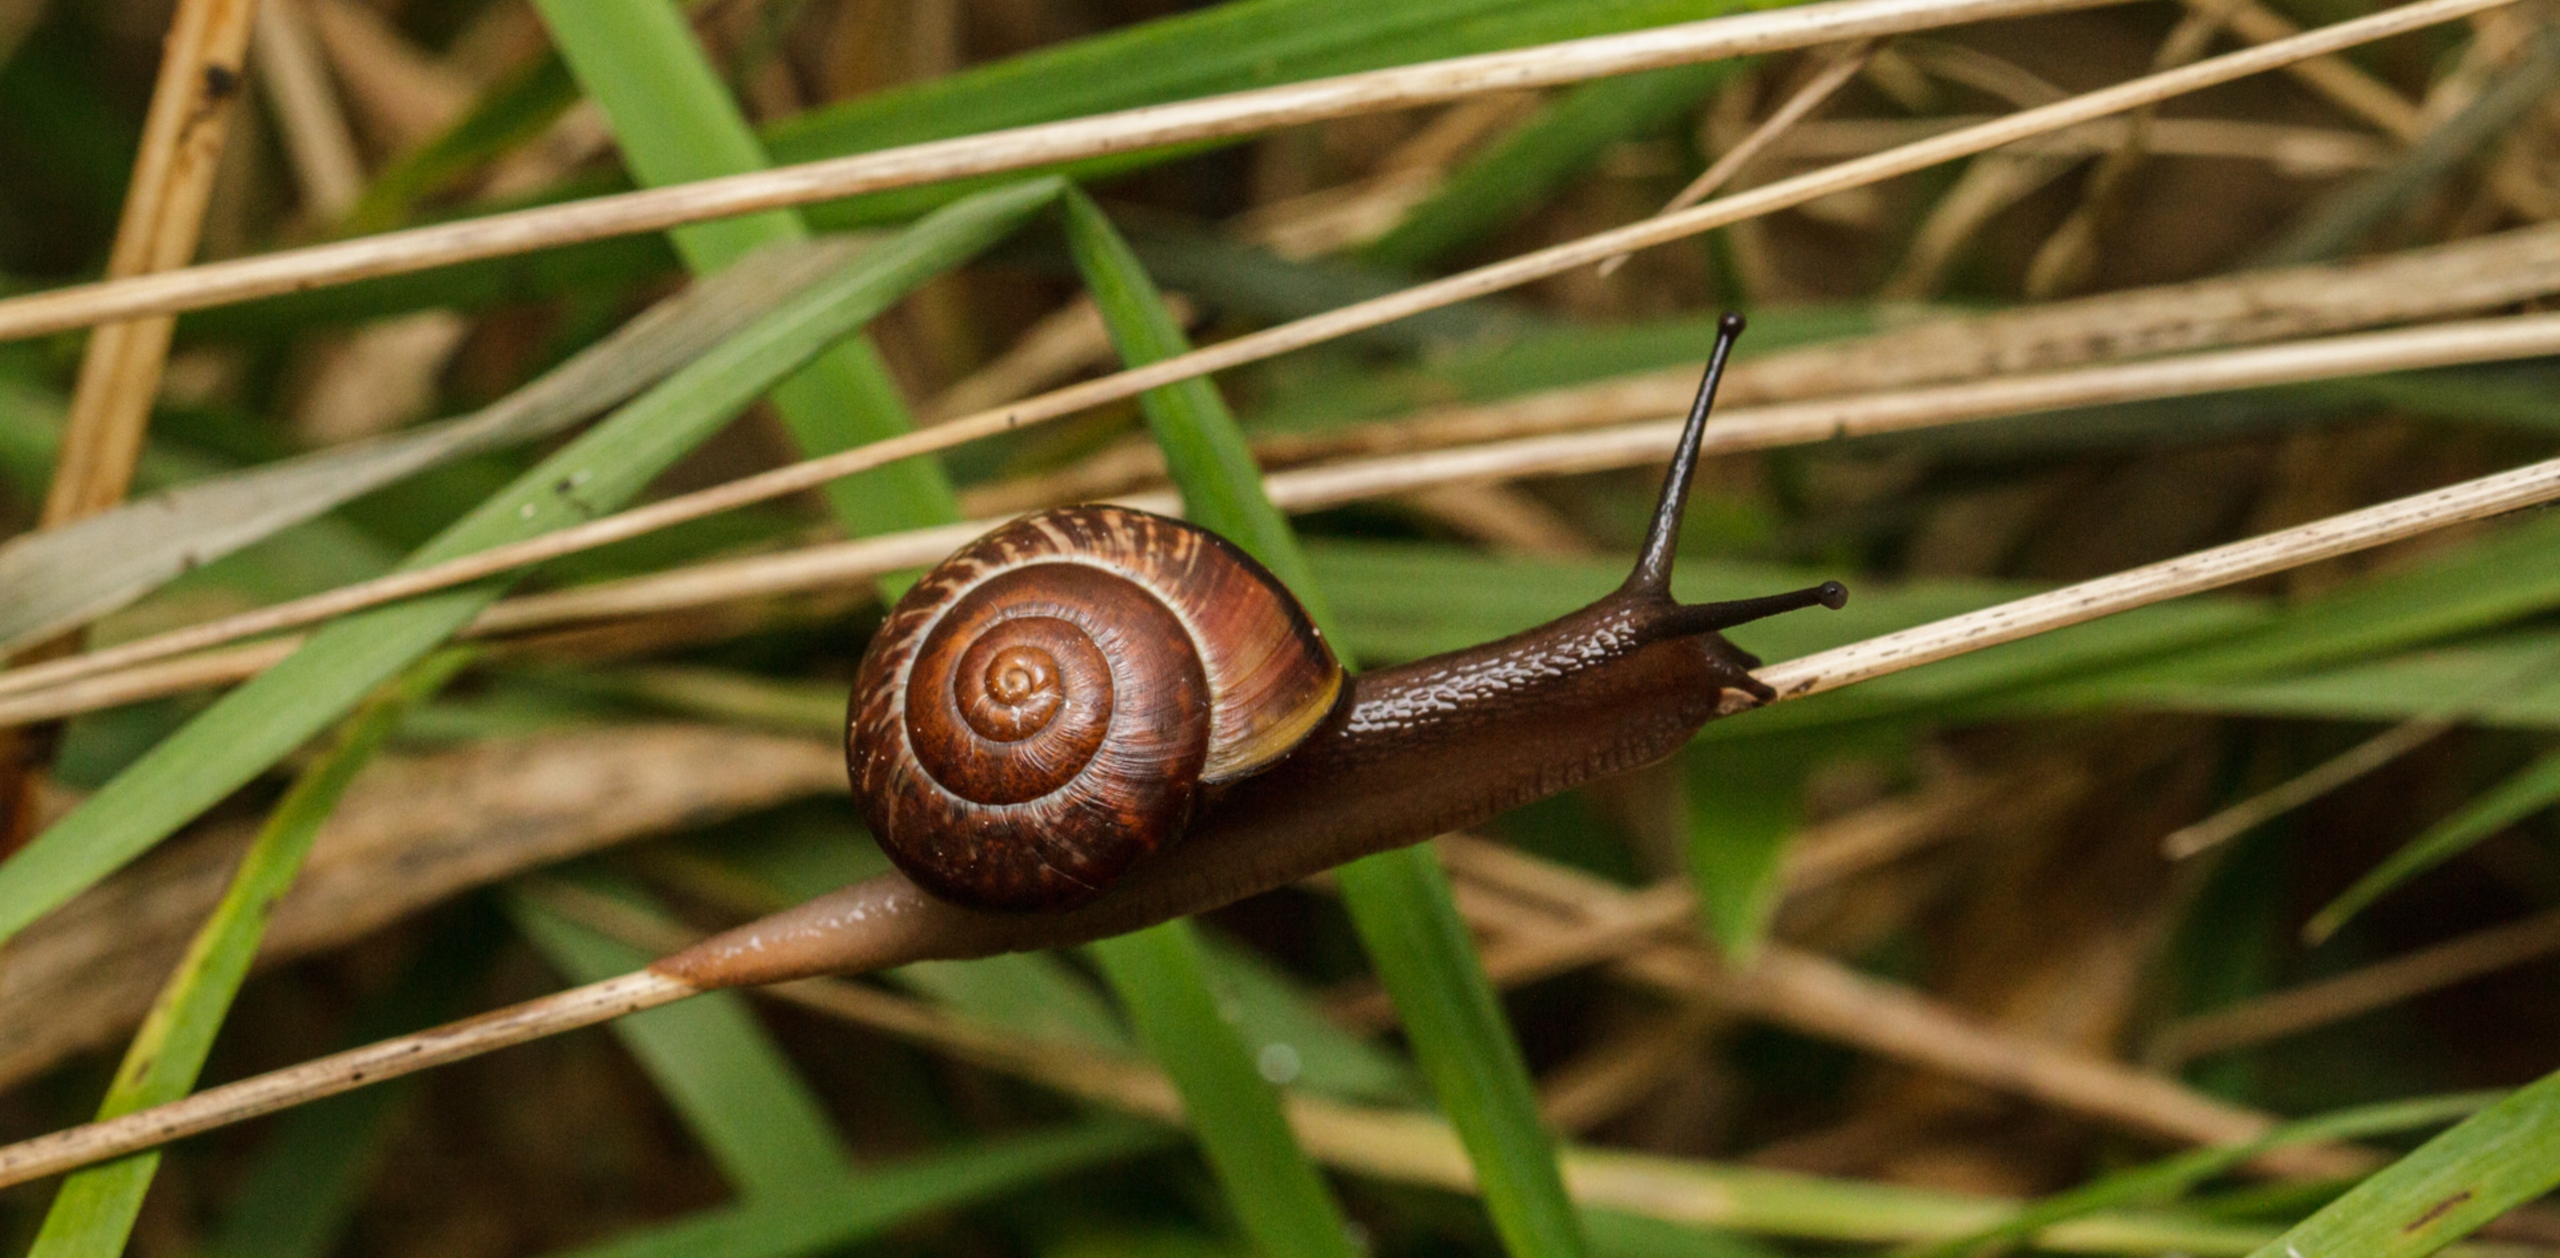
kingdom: Animalia
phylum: Mollusca
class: Gastropoda
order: Stylommatophora
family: Helicidae
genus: Arianta
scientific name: Arianta arbustorum
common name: Kratsnegl
